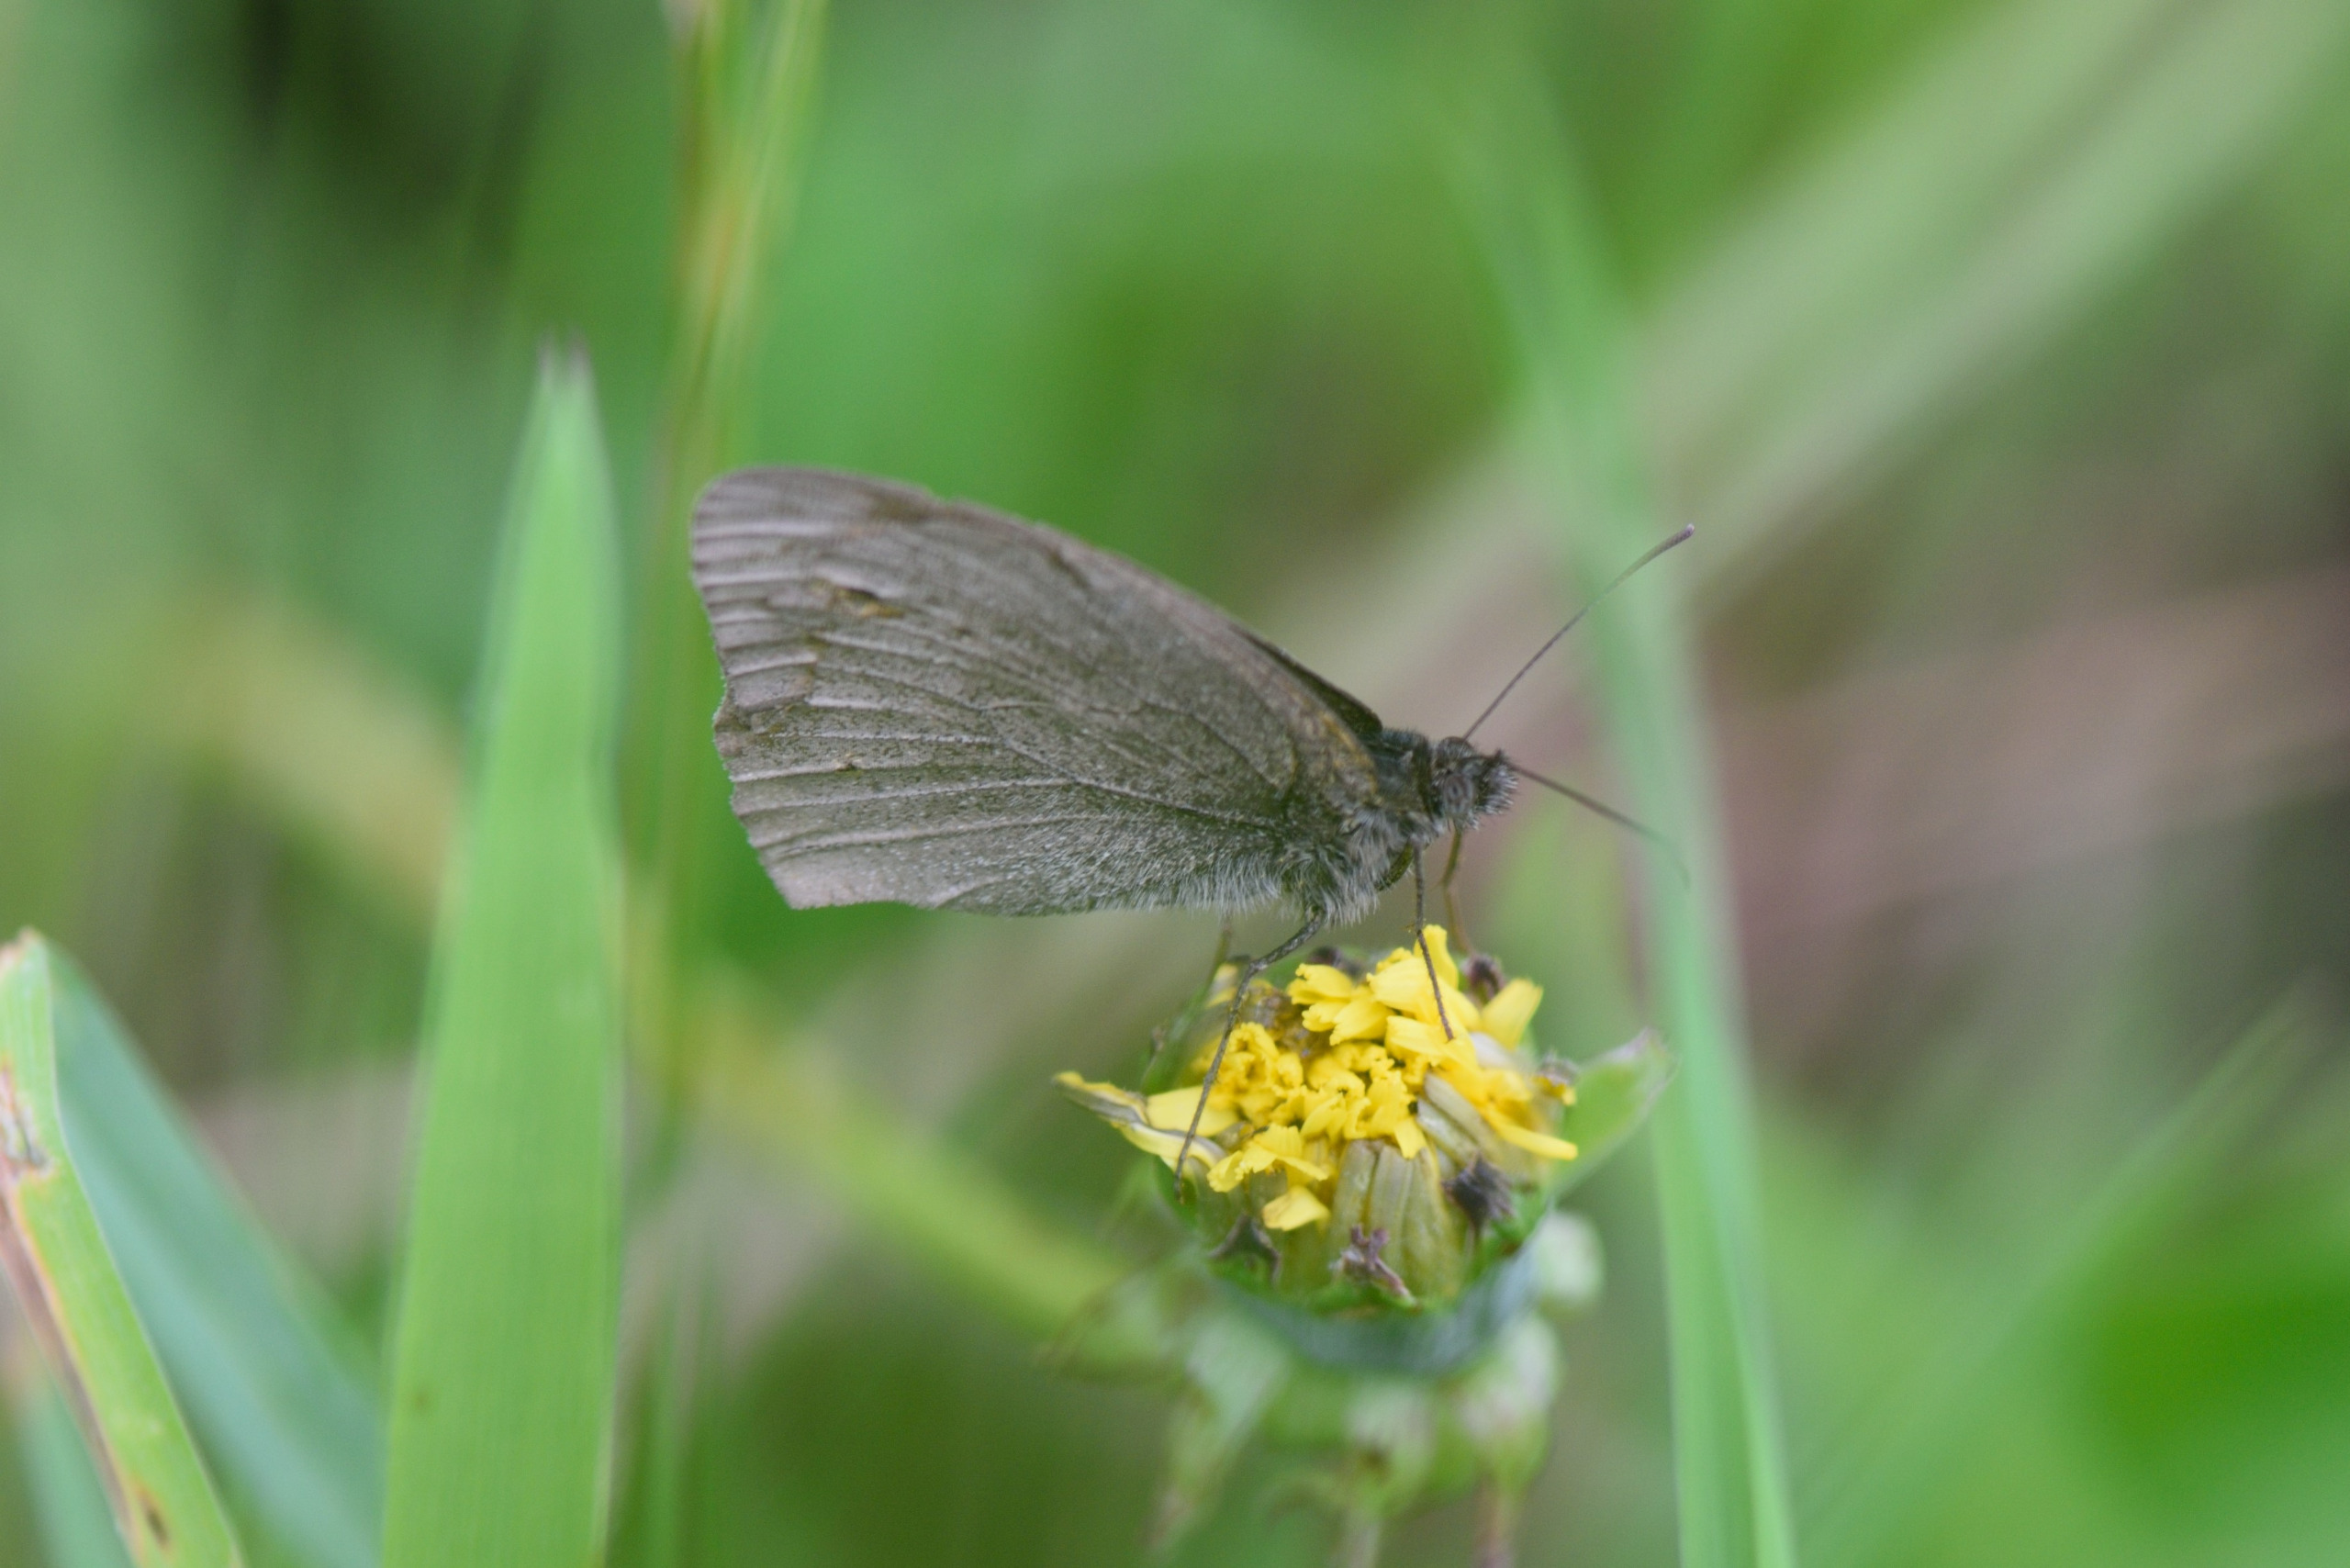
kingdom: Animalia
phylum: Arthropoda
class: Insecta
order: Lepidoptera
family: Nymphalidae
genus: Maniola
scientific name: Maniola jurtina
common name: Græsrandøje
